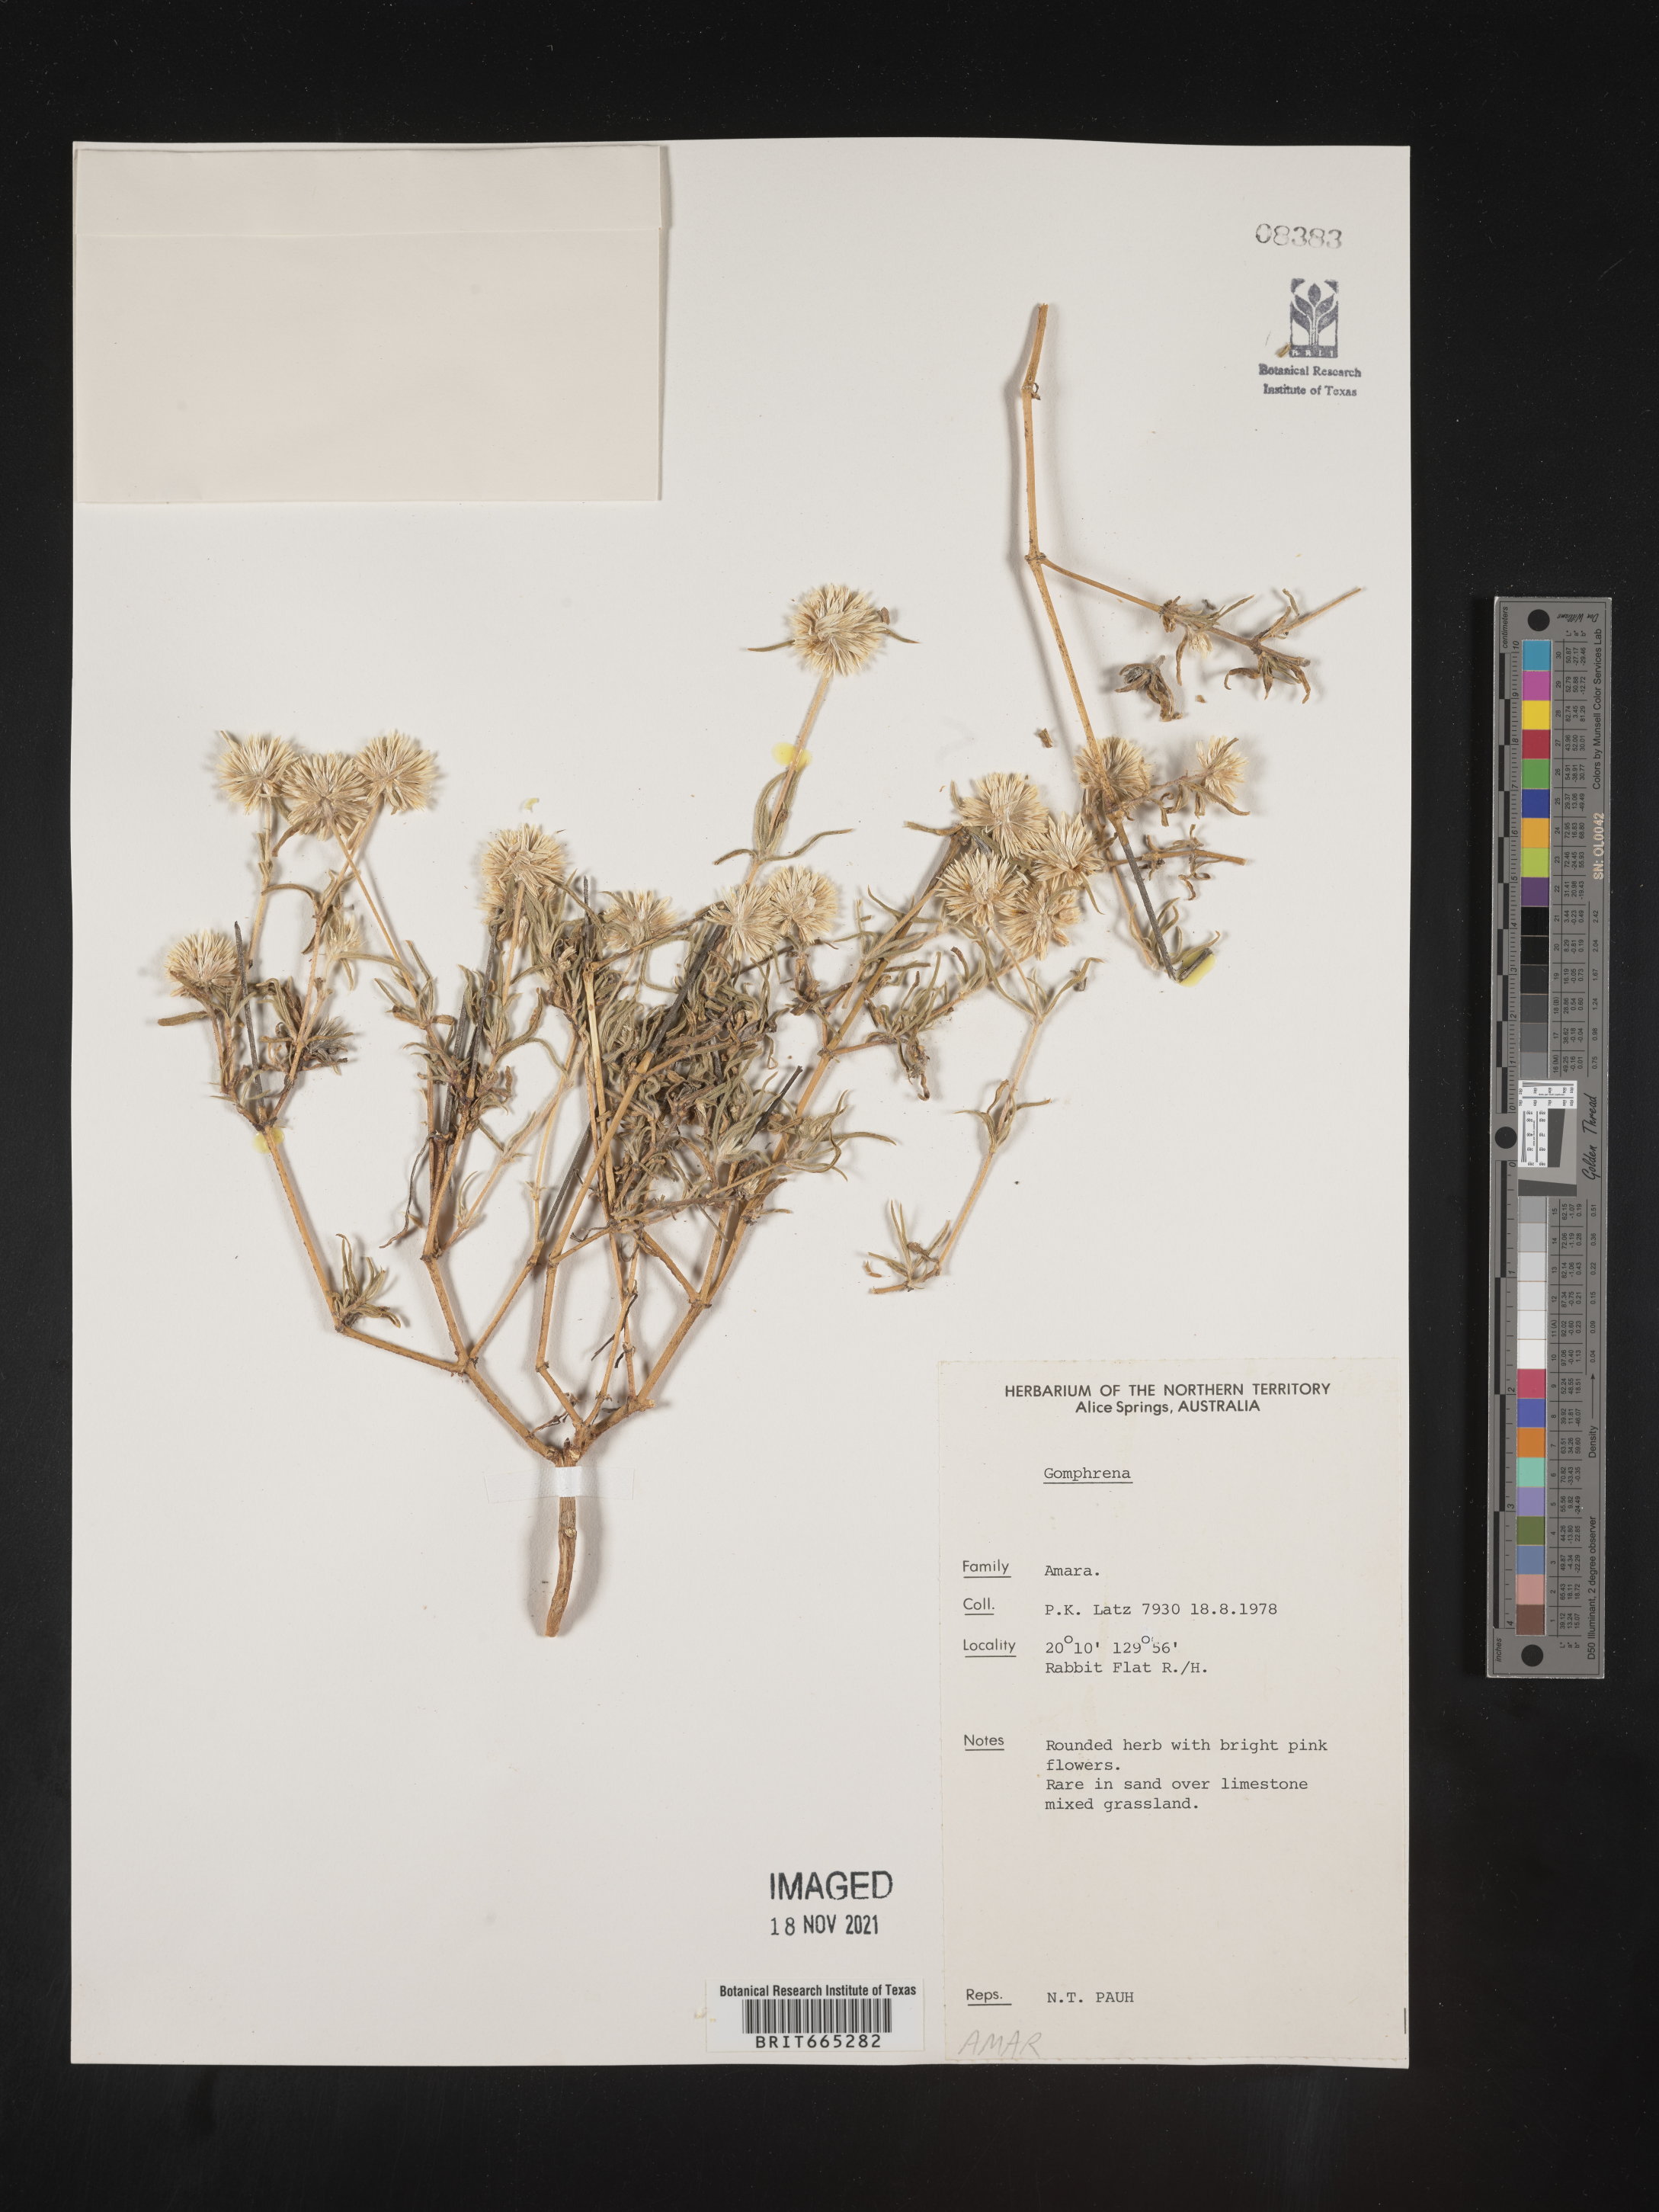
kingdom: Plantae
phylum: Tracheophyta
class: Magnoliopsida
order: Caryophyllales
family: Amaranthaceae
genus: Gomphrena
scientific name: Gomphrena
